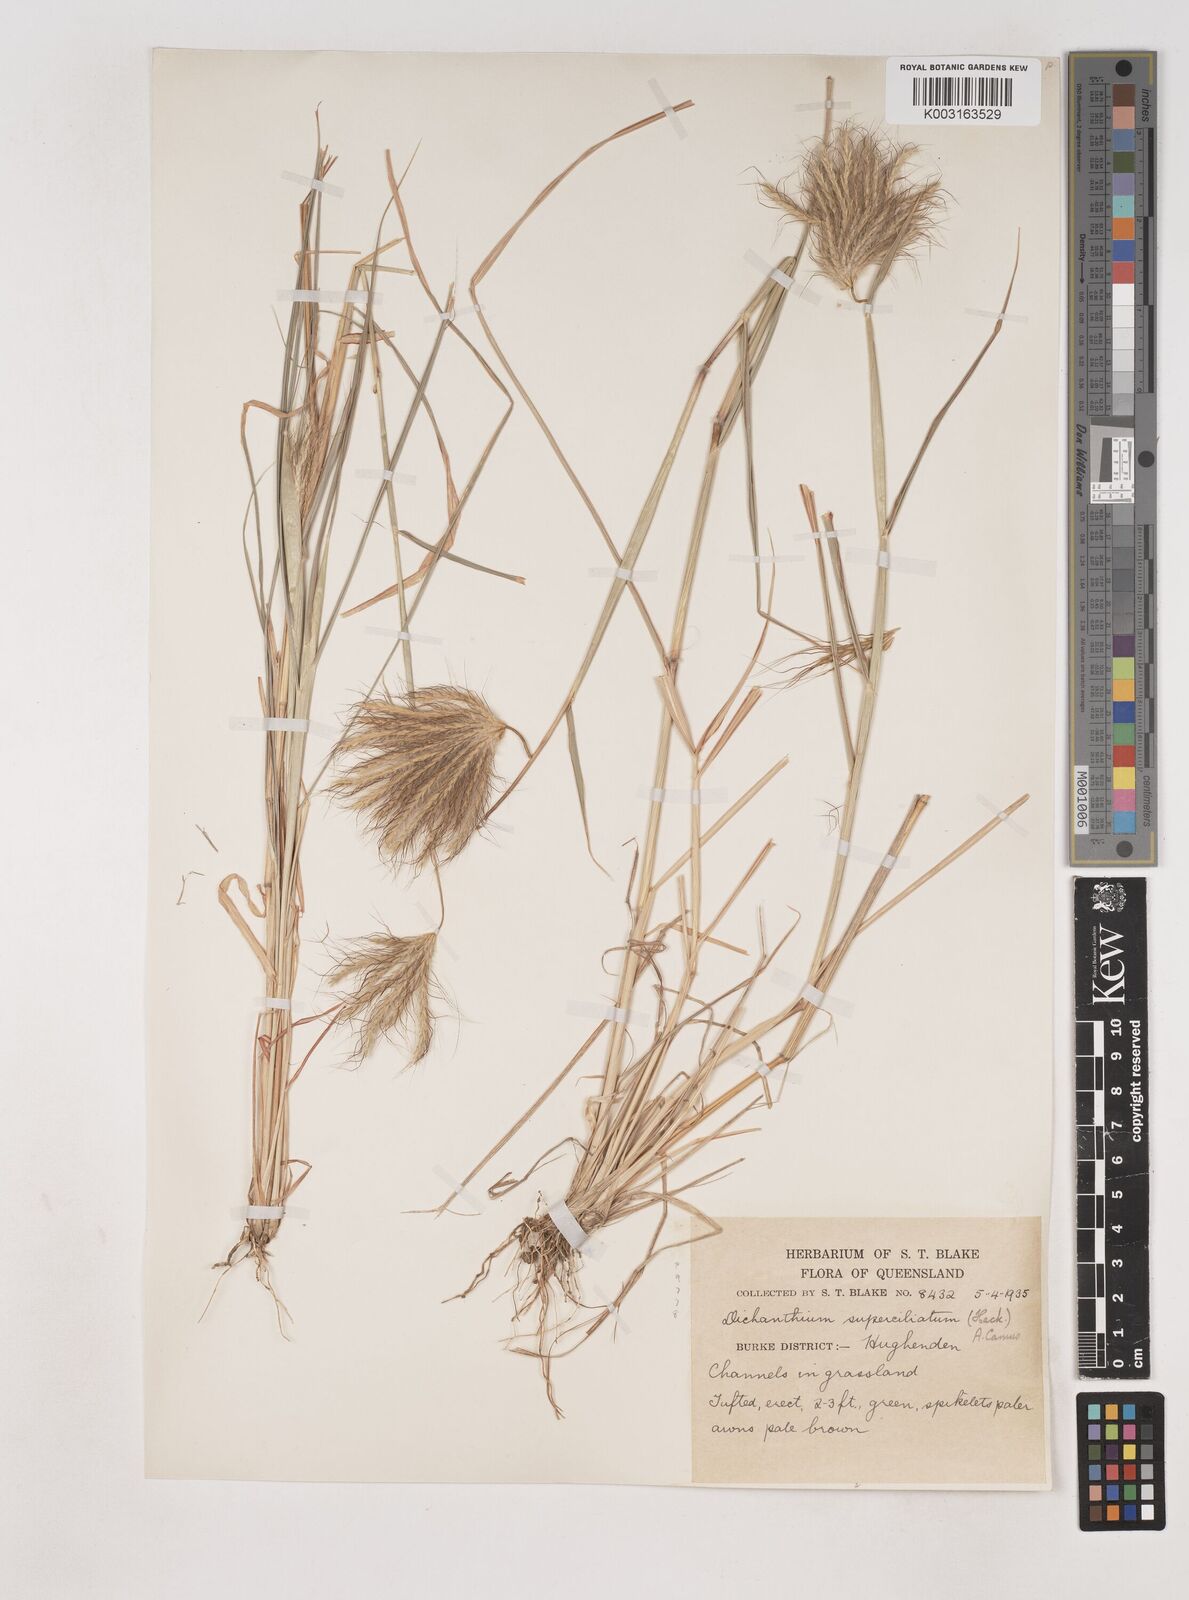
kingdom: Plantae
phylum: Tracheophyta
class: Liliopsida
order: Poales
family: Poaceae
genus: Dichanthium
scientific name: Dichanthium sericeum
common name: Silky bluestem
